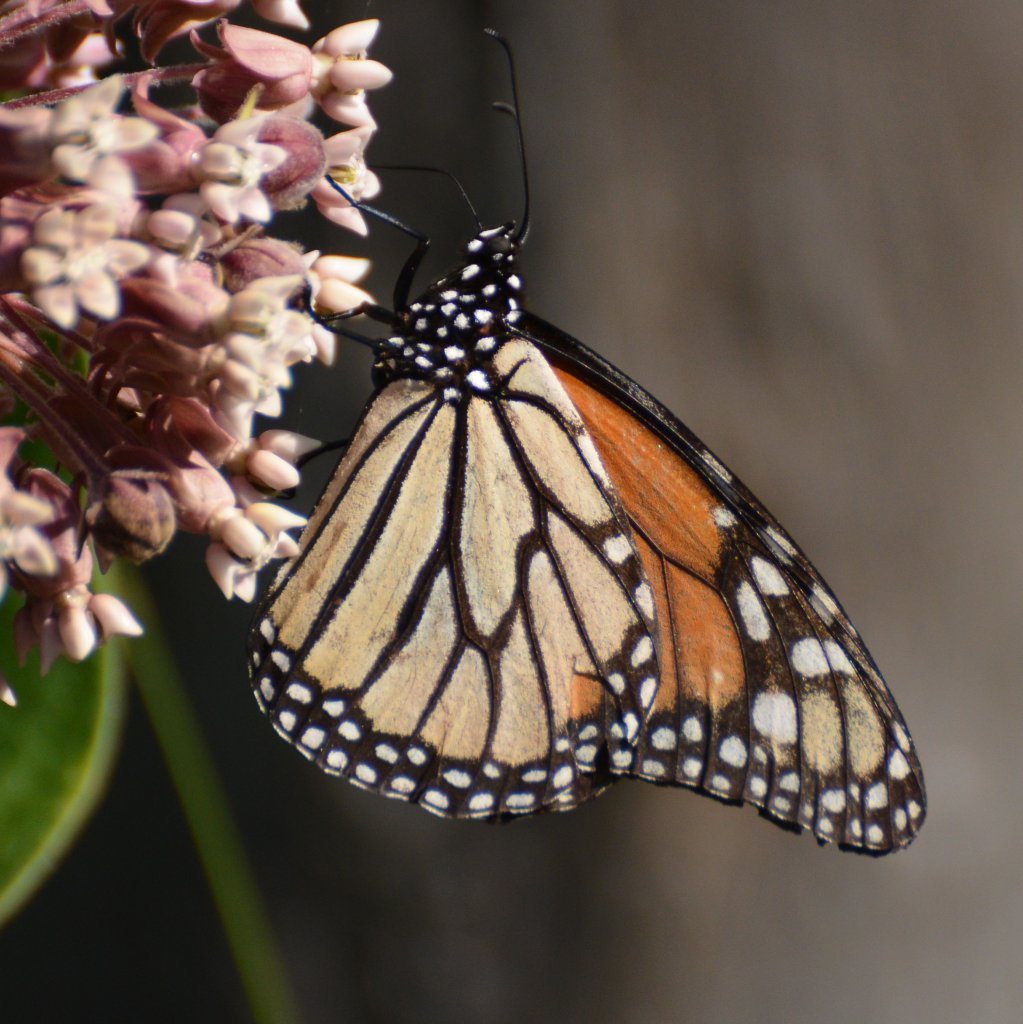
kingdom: Animalia
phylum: Arthropoda
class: Insecta
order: Lepidoptera
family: Nymphalidae
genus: Danaus
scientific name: Danaus plexippus
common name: Monarch
